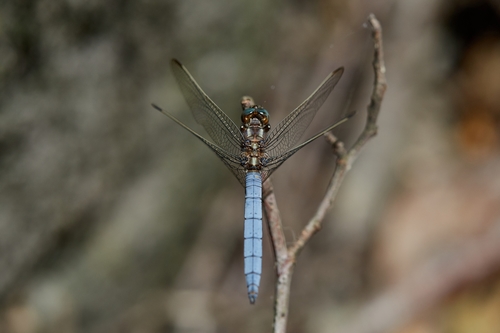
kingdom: Animalia
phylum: Arthropoda
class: Insecta
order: Odonata
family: Libellulidae
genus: Orthetrum
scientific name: Orthetrum coerulescens
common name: Keeled skimmer
